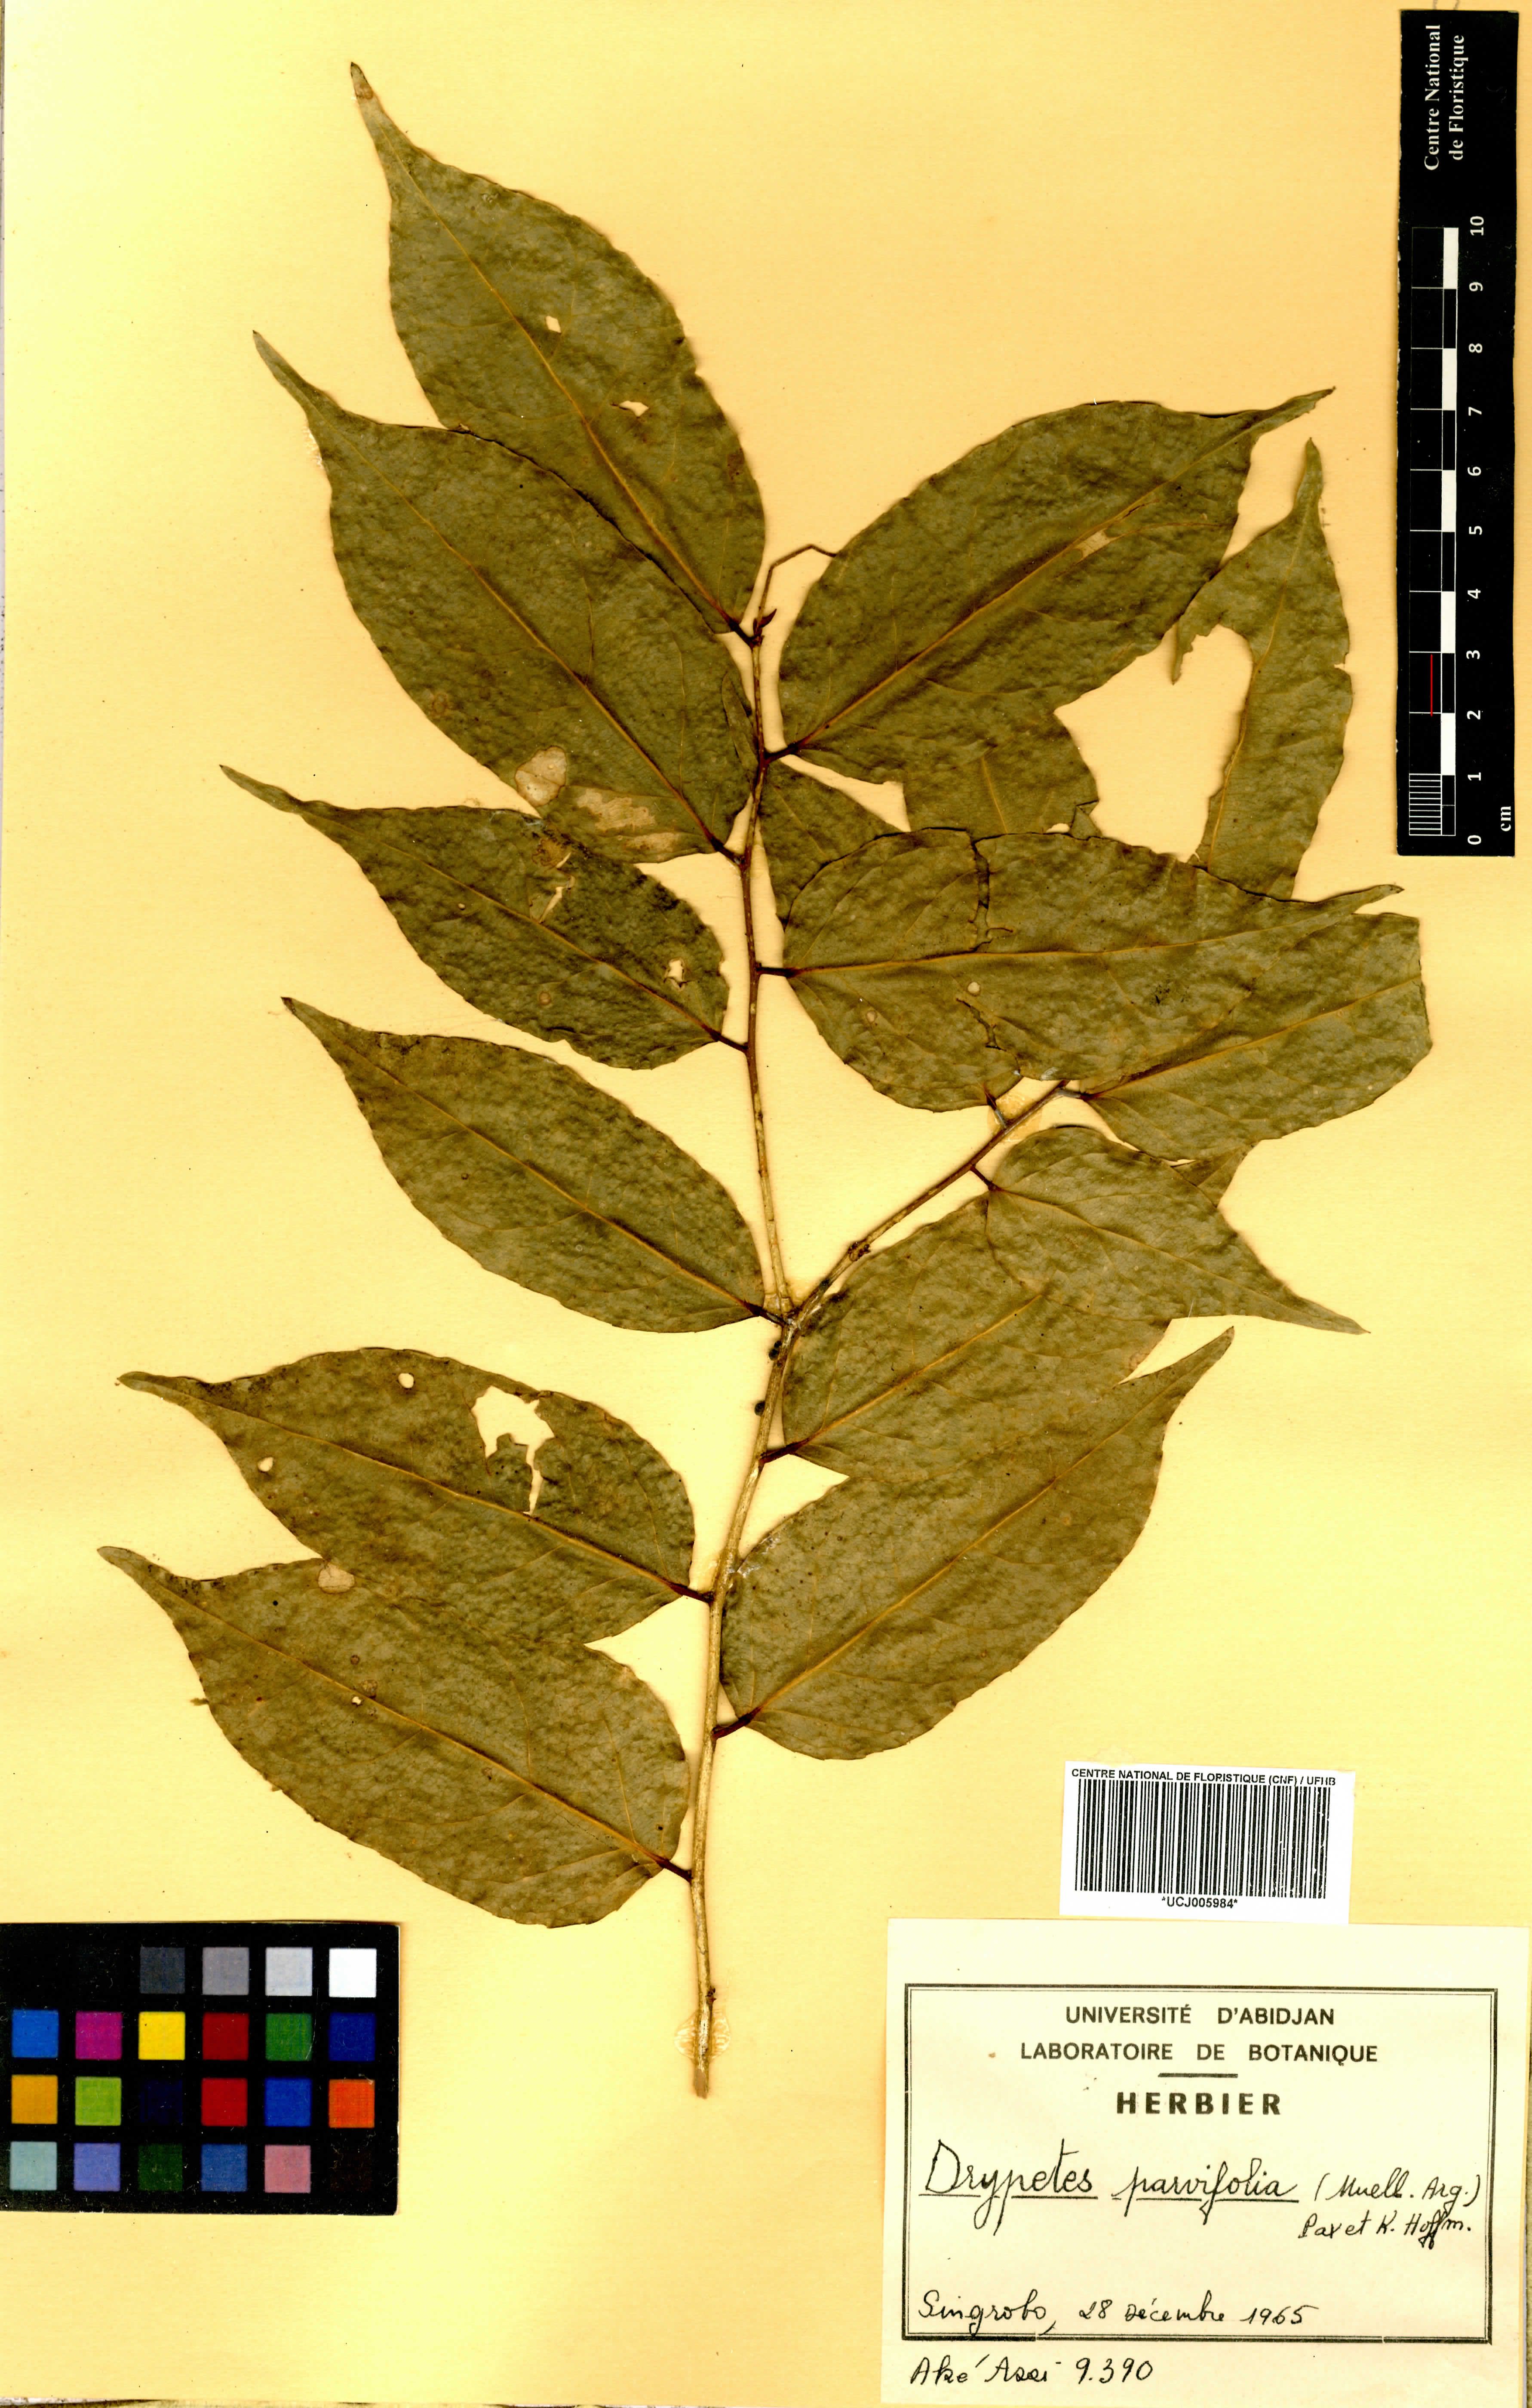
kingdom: Plantae
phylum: Tracheophyta
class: Magnoliopsida
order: Malpighiales
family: Putranjivaceae
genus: Drypetes
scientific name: Drypetes parvifolia
